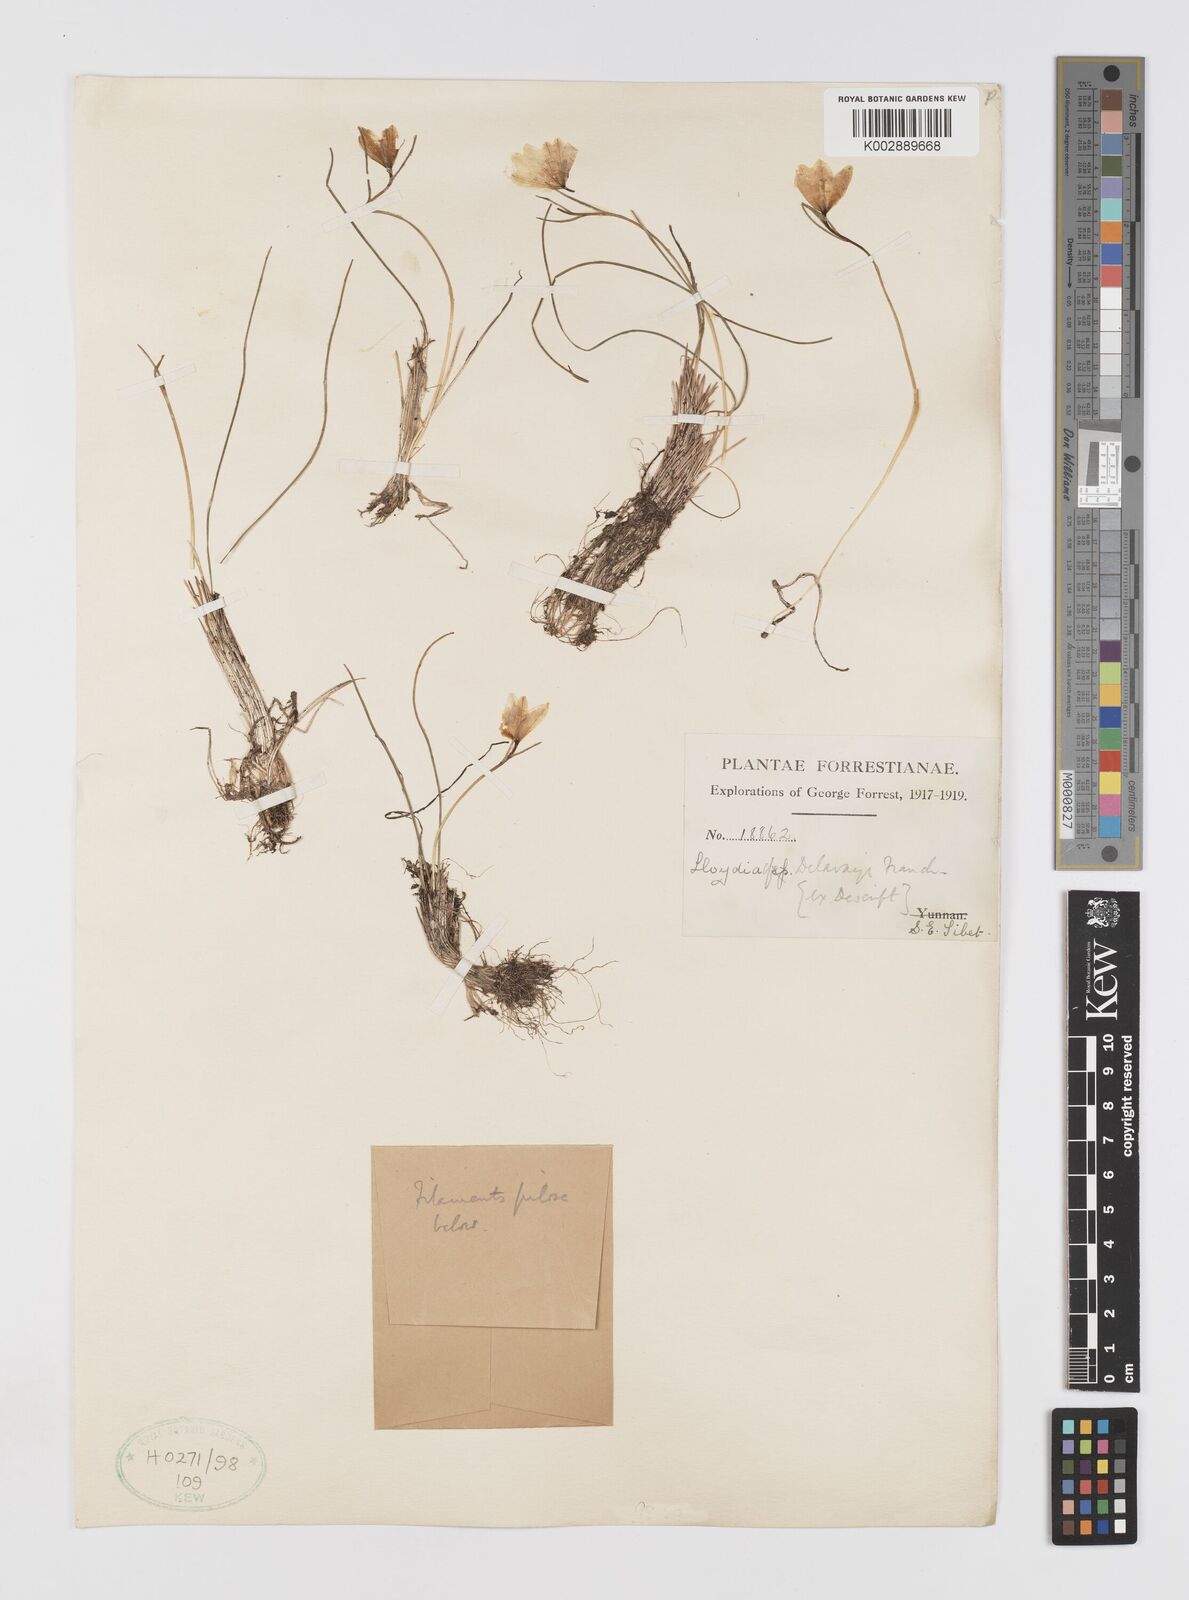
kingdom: Plantae
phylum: Tracheophyta
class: Liliopsida
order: Liliales
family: Liliaceae
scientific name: Liliaceae
